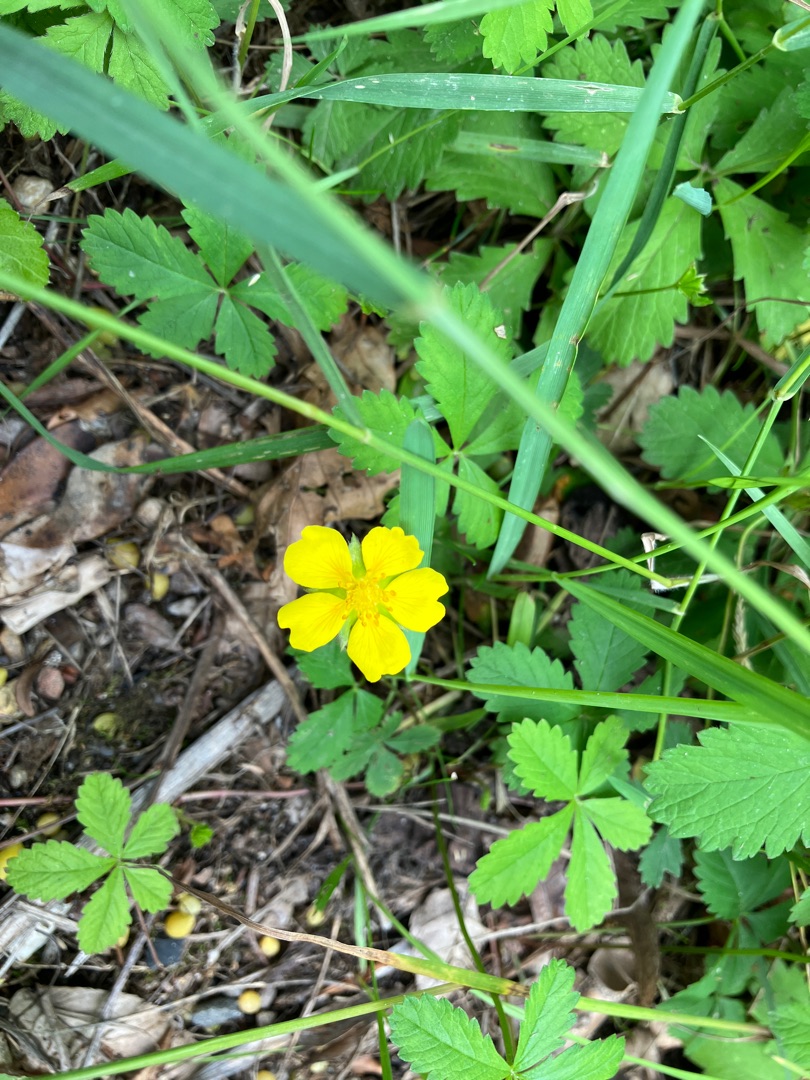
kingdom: Plantae
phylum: Tracheophyta
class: Magnoliopsida
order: Rosales
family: Rosaceae
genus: Potentilla
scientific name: Potentilla reptans
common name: Krybende potentil
